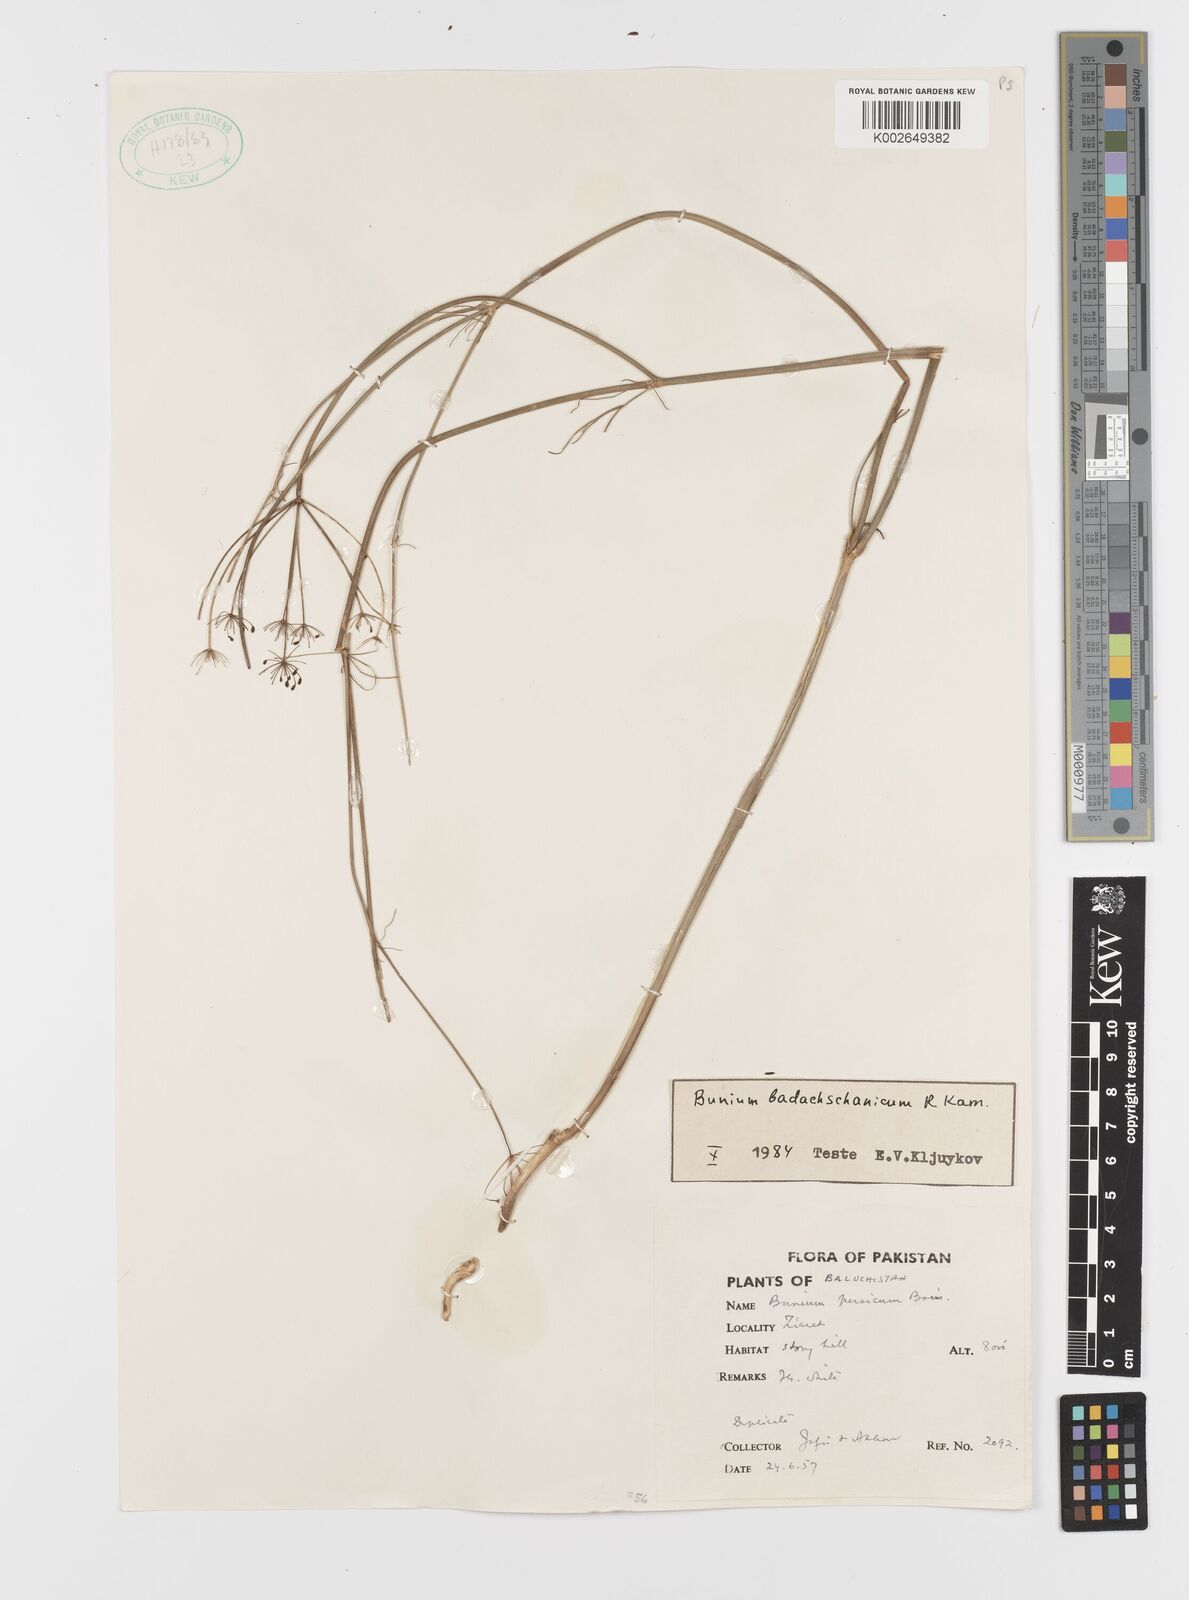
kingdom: Plantae
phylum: Tracheophyta
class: Magnoliopsida
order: Apiales
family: Apiaceae
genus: Elwendia
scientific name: Elwendia badachschanica
